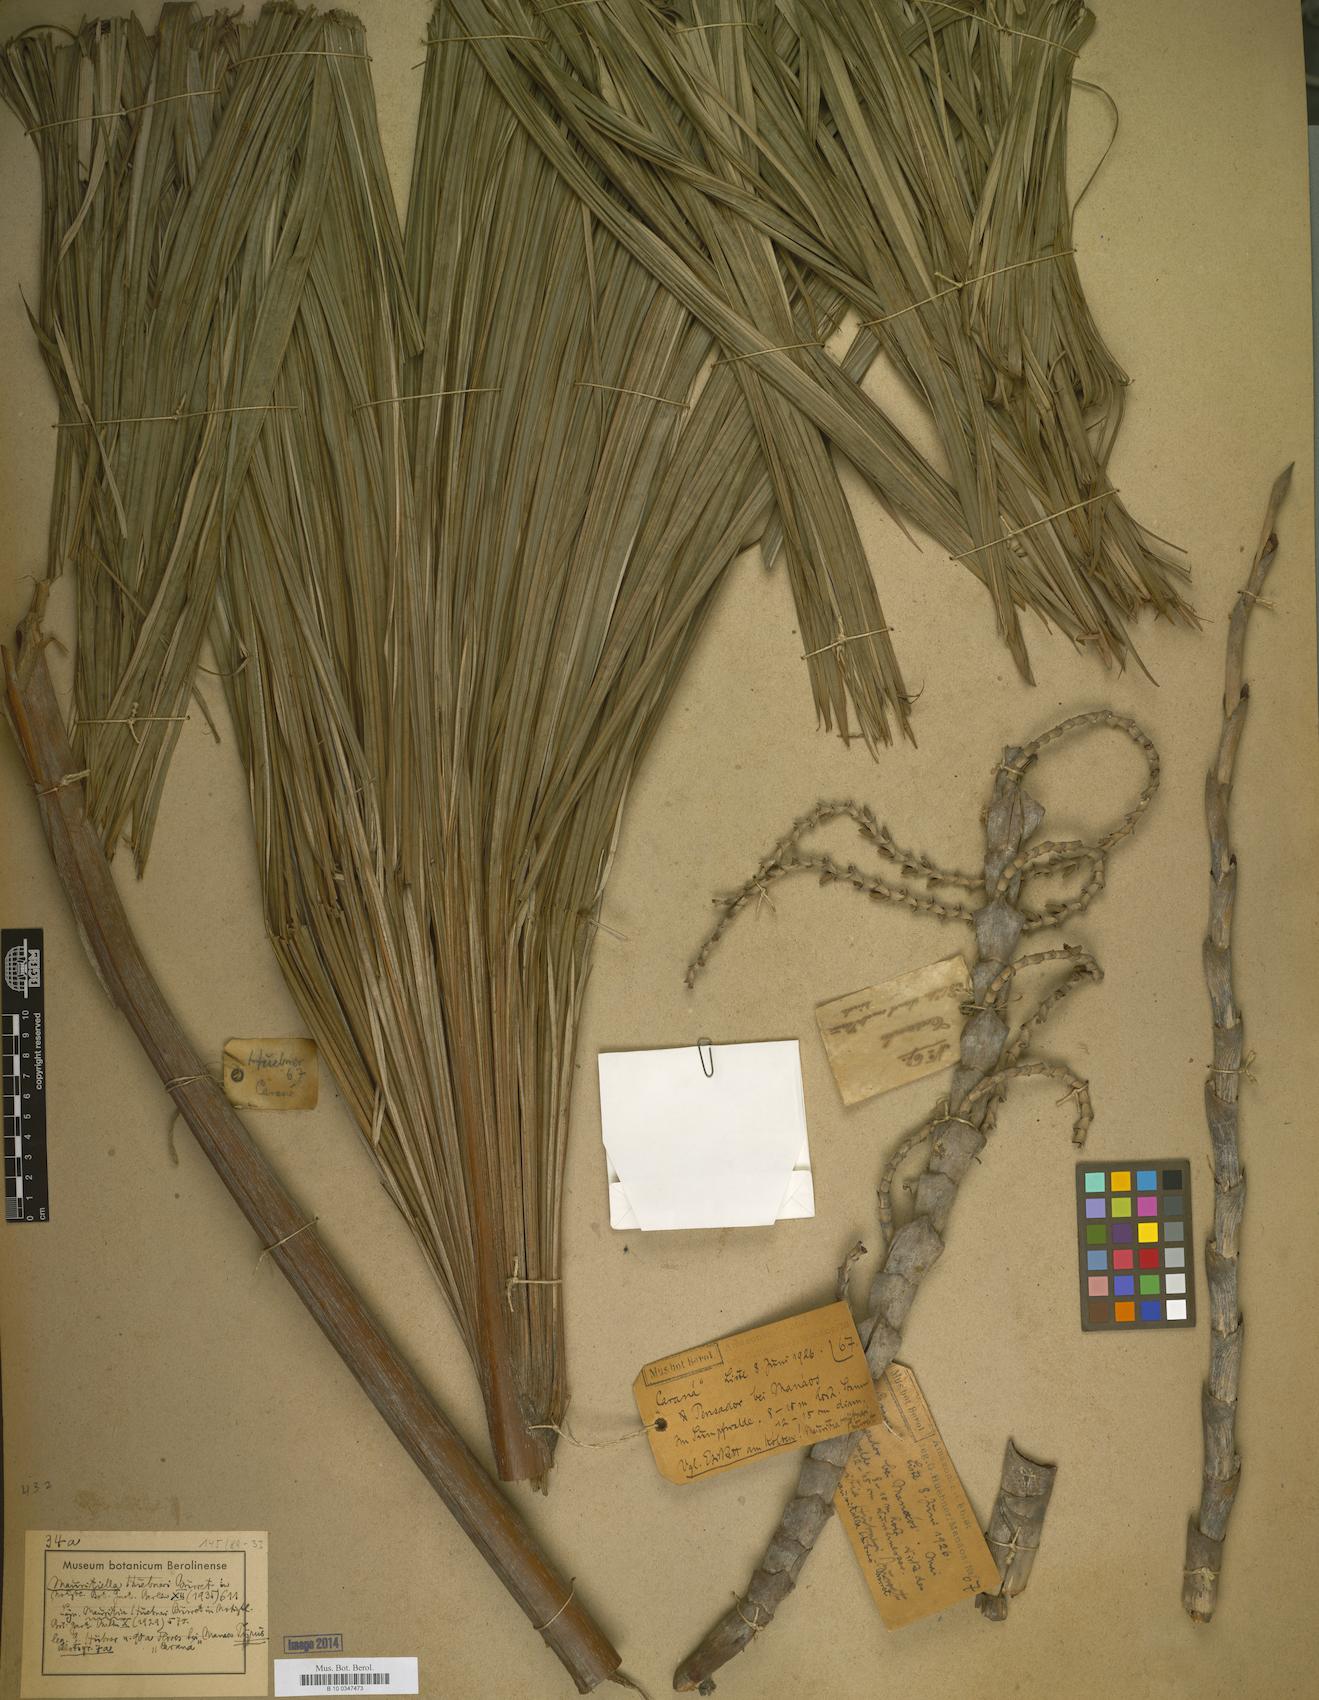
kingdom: Plantae
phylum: Tracheophyta
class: Liliopsida
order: Arecales
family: Arecaceae
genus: Mauritiella
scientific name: Mauritiella armata
